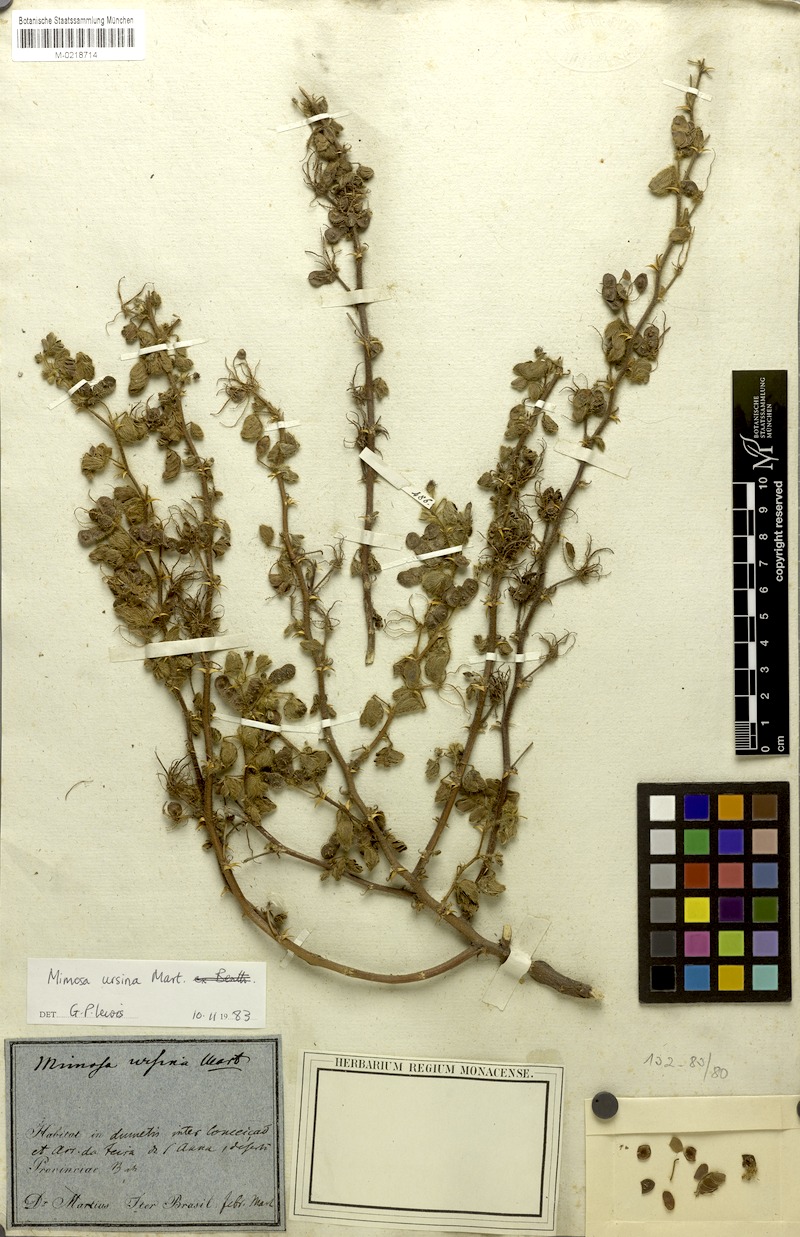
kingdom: Plantae
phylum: Tracheophyta
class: Magnoliopsida
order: Fabales
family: Fabaceae
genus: Mimosa
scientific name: Mimosa ursina
